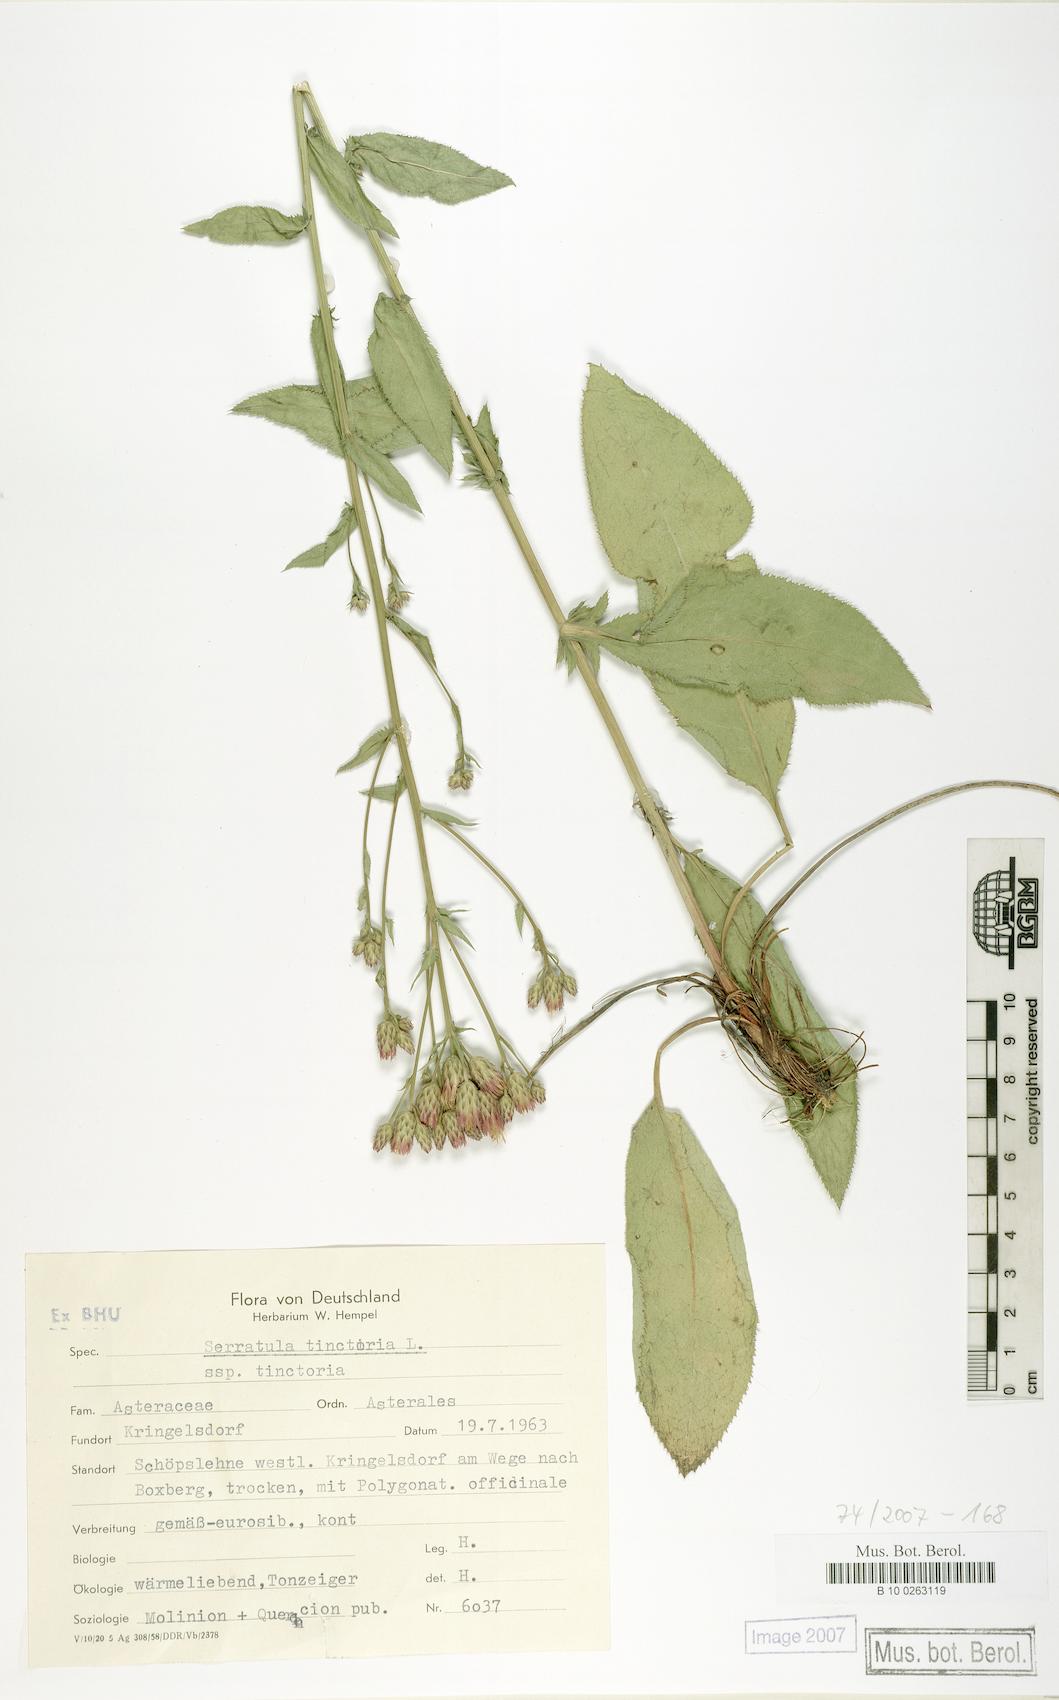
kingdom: Plantae
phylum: Tracheophyta
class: Magnoliopsida
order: Asterales
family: Asteraceae
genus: Serratula
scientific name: Serratula tinctoria
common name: Saw-wort
